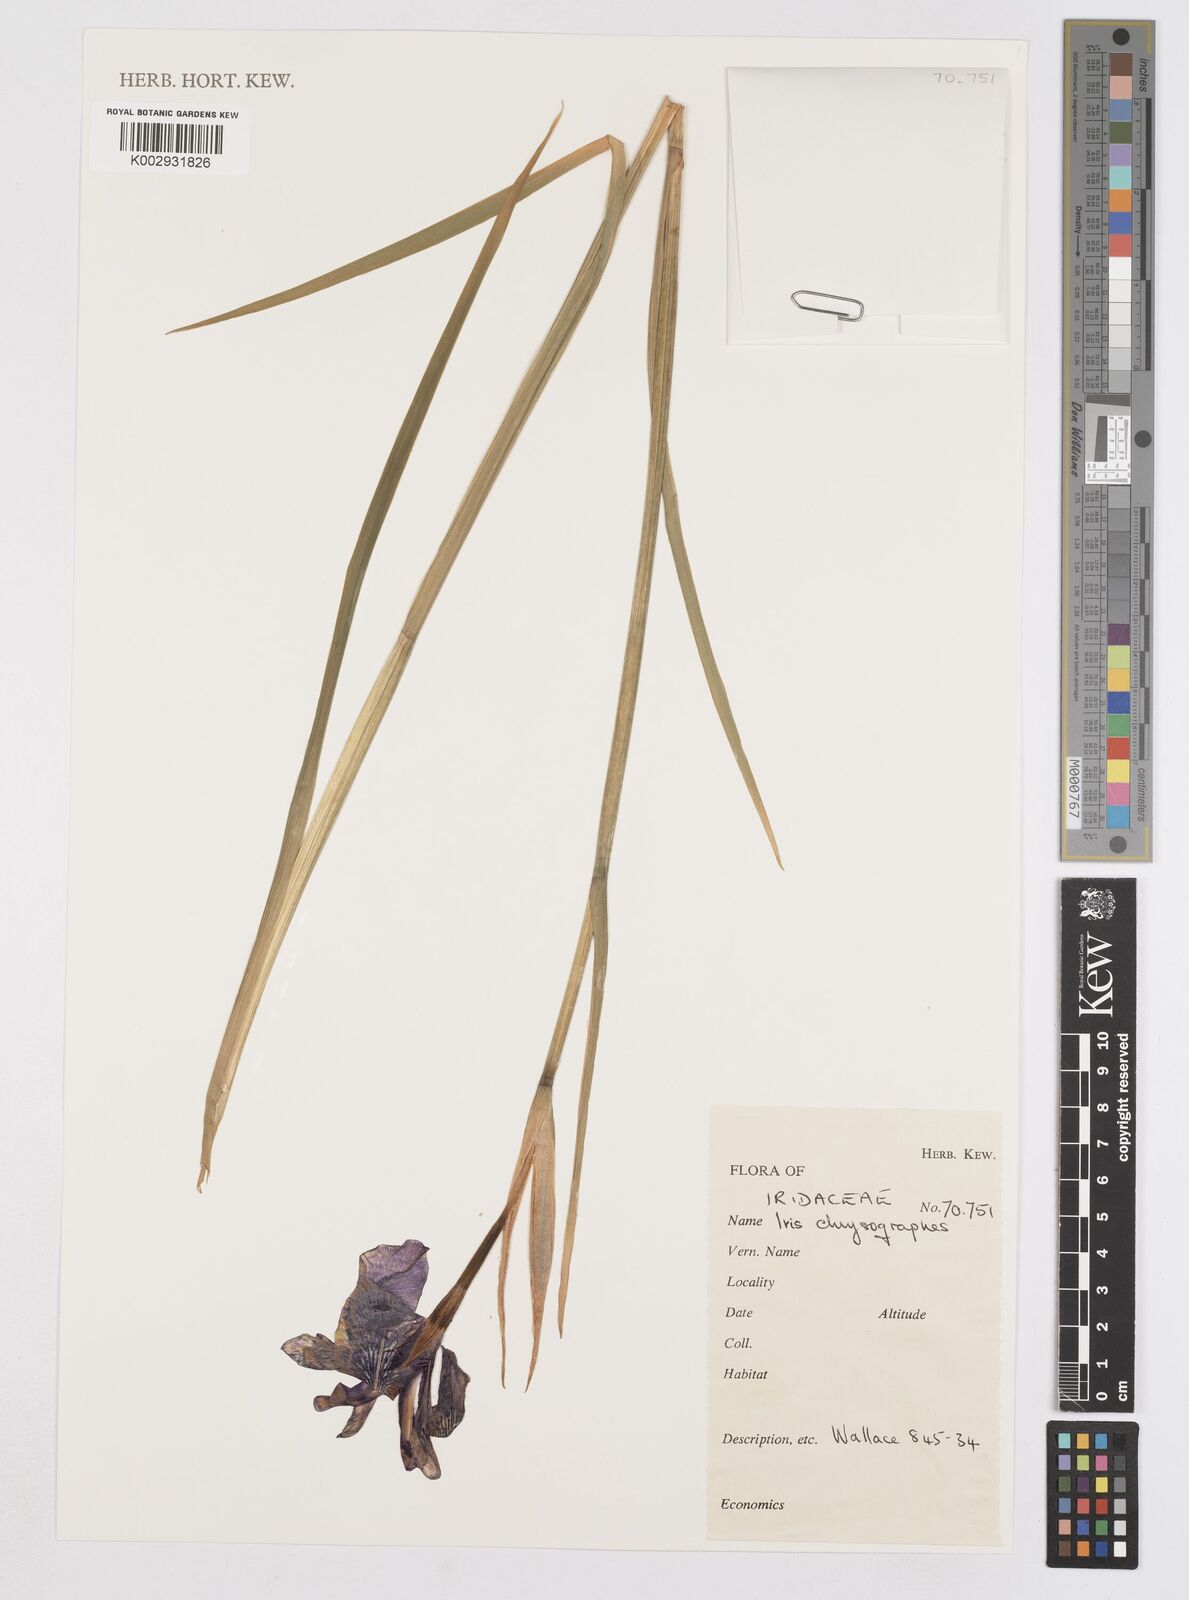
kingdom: Plantae
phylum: Tracheophyta
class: Liliopsida
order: Asparagales
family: Iridaceae
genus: Iris
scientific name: Iris chrysographes
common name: Gold-vein iris
